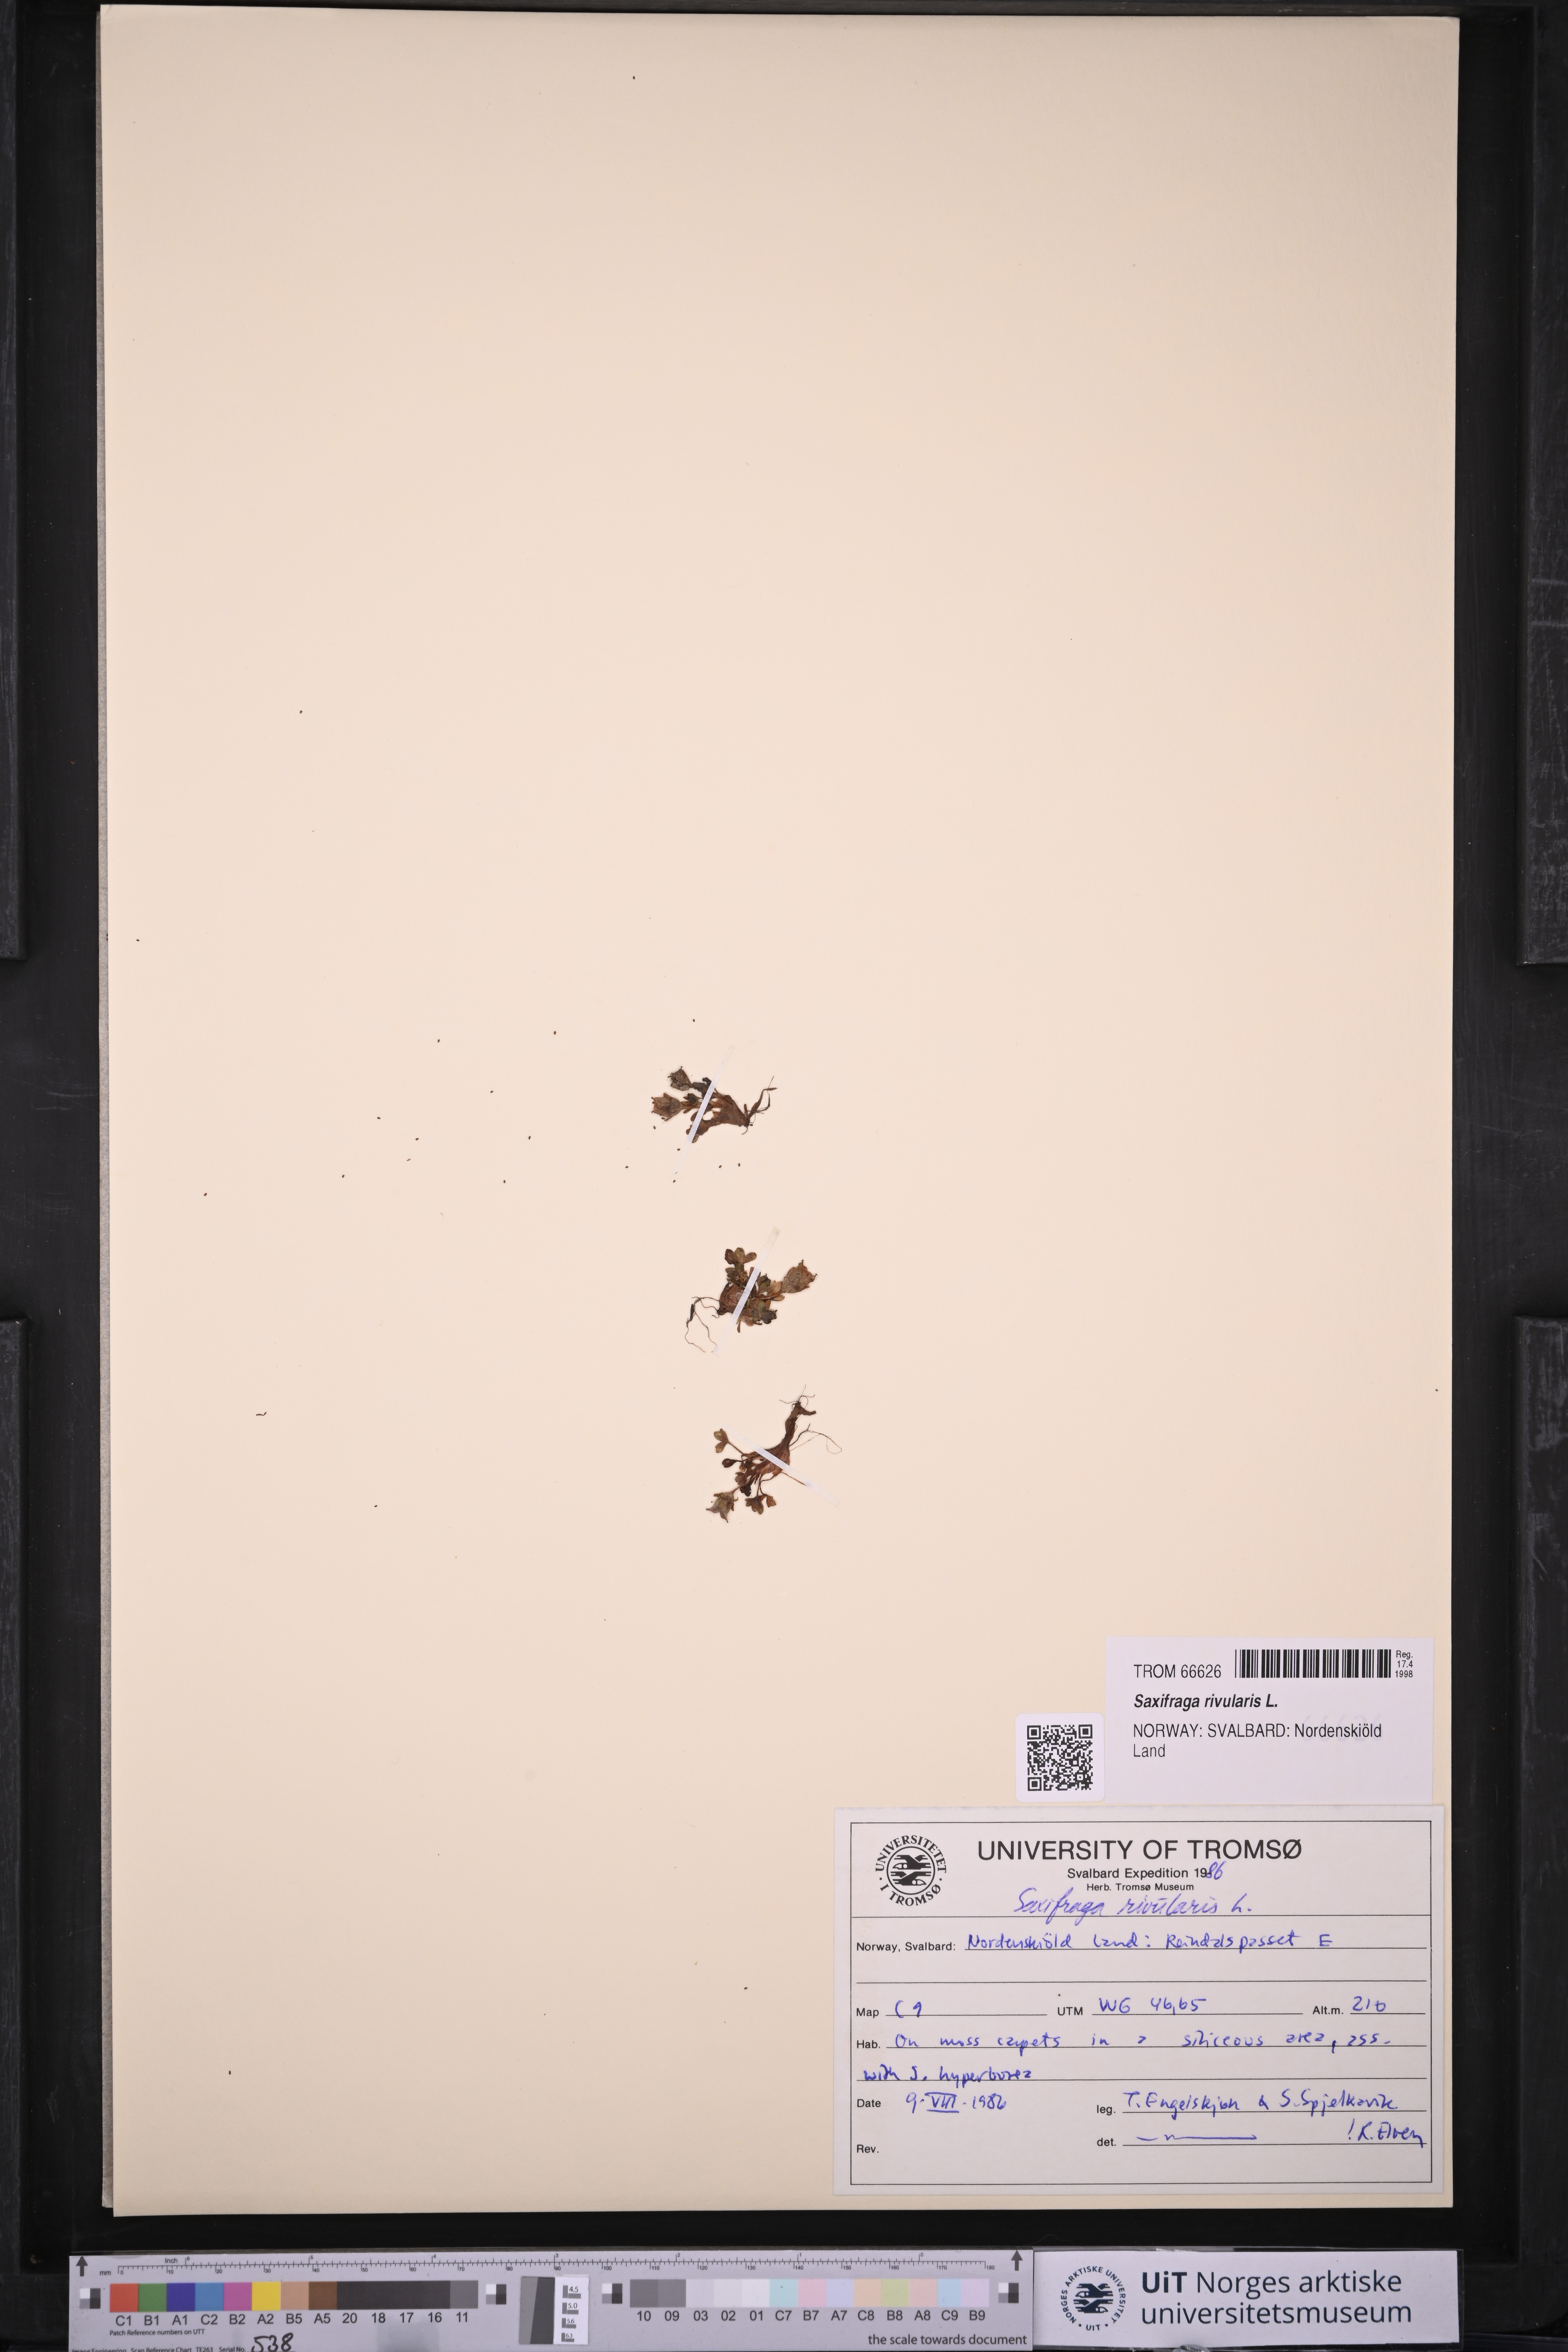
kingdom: Plantae
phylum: Tracheophyta
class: Magnoliopsida
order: Saxifragales
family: Saxifragaceae
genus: Saxifraga
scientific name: Saxifraga rivularis
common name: Highland saxifrage
